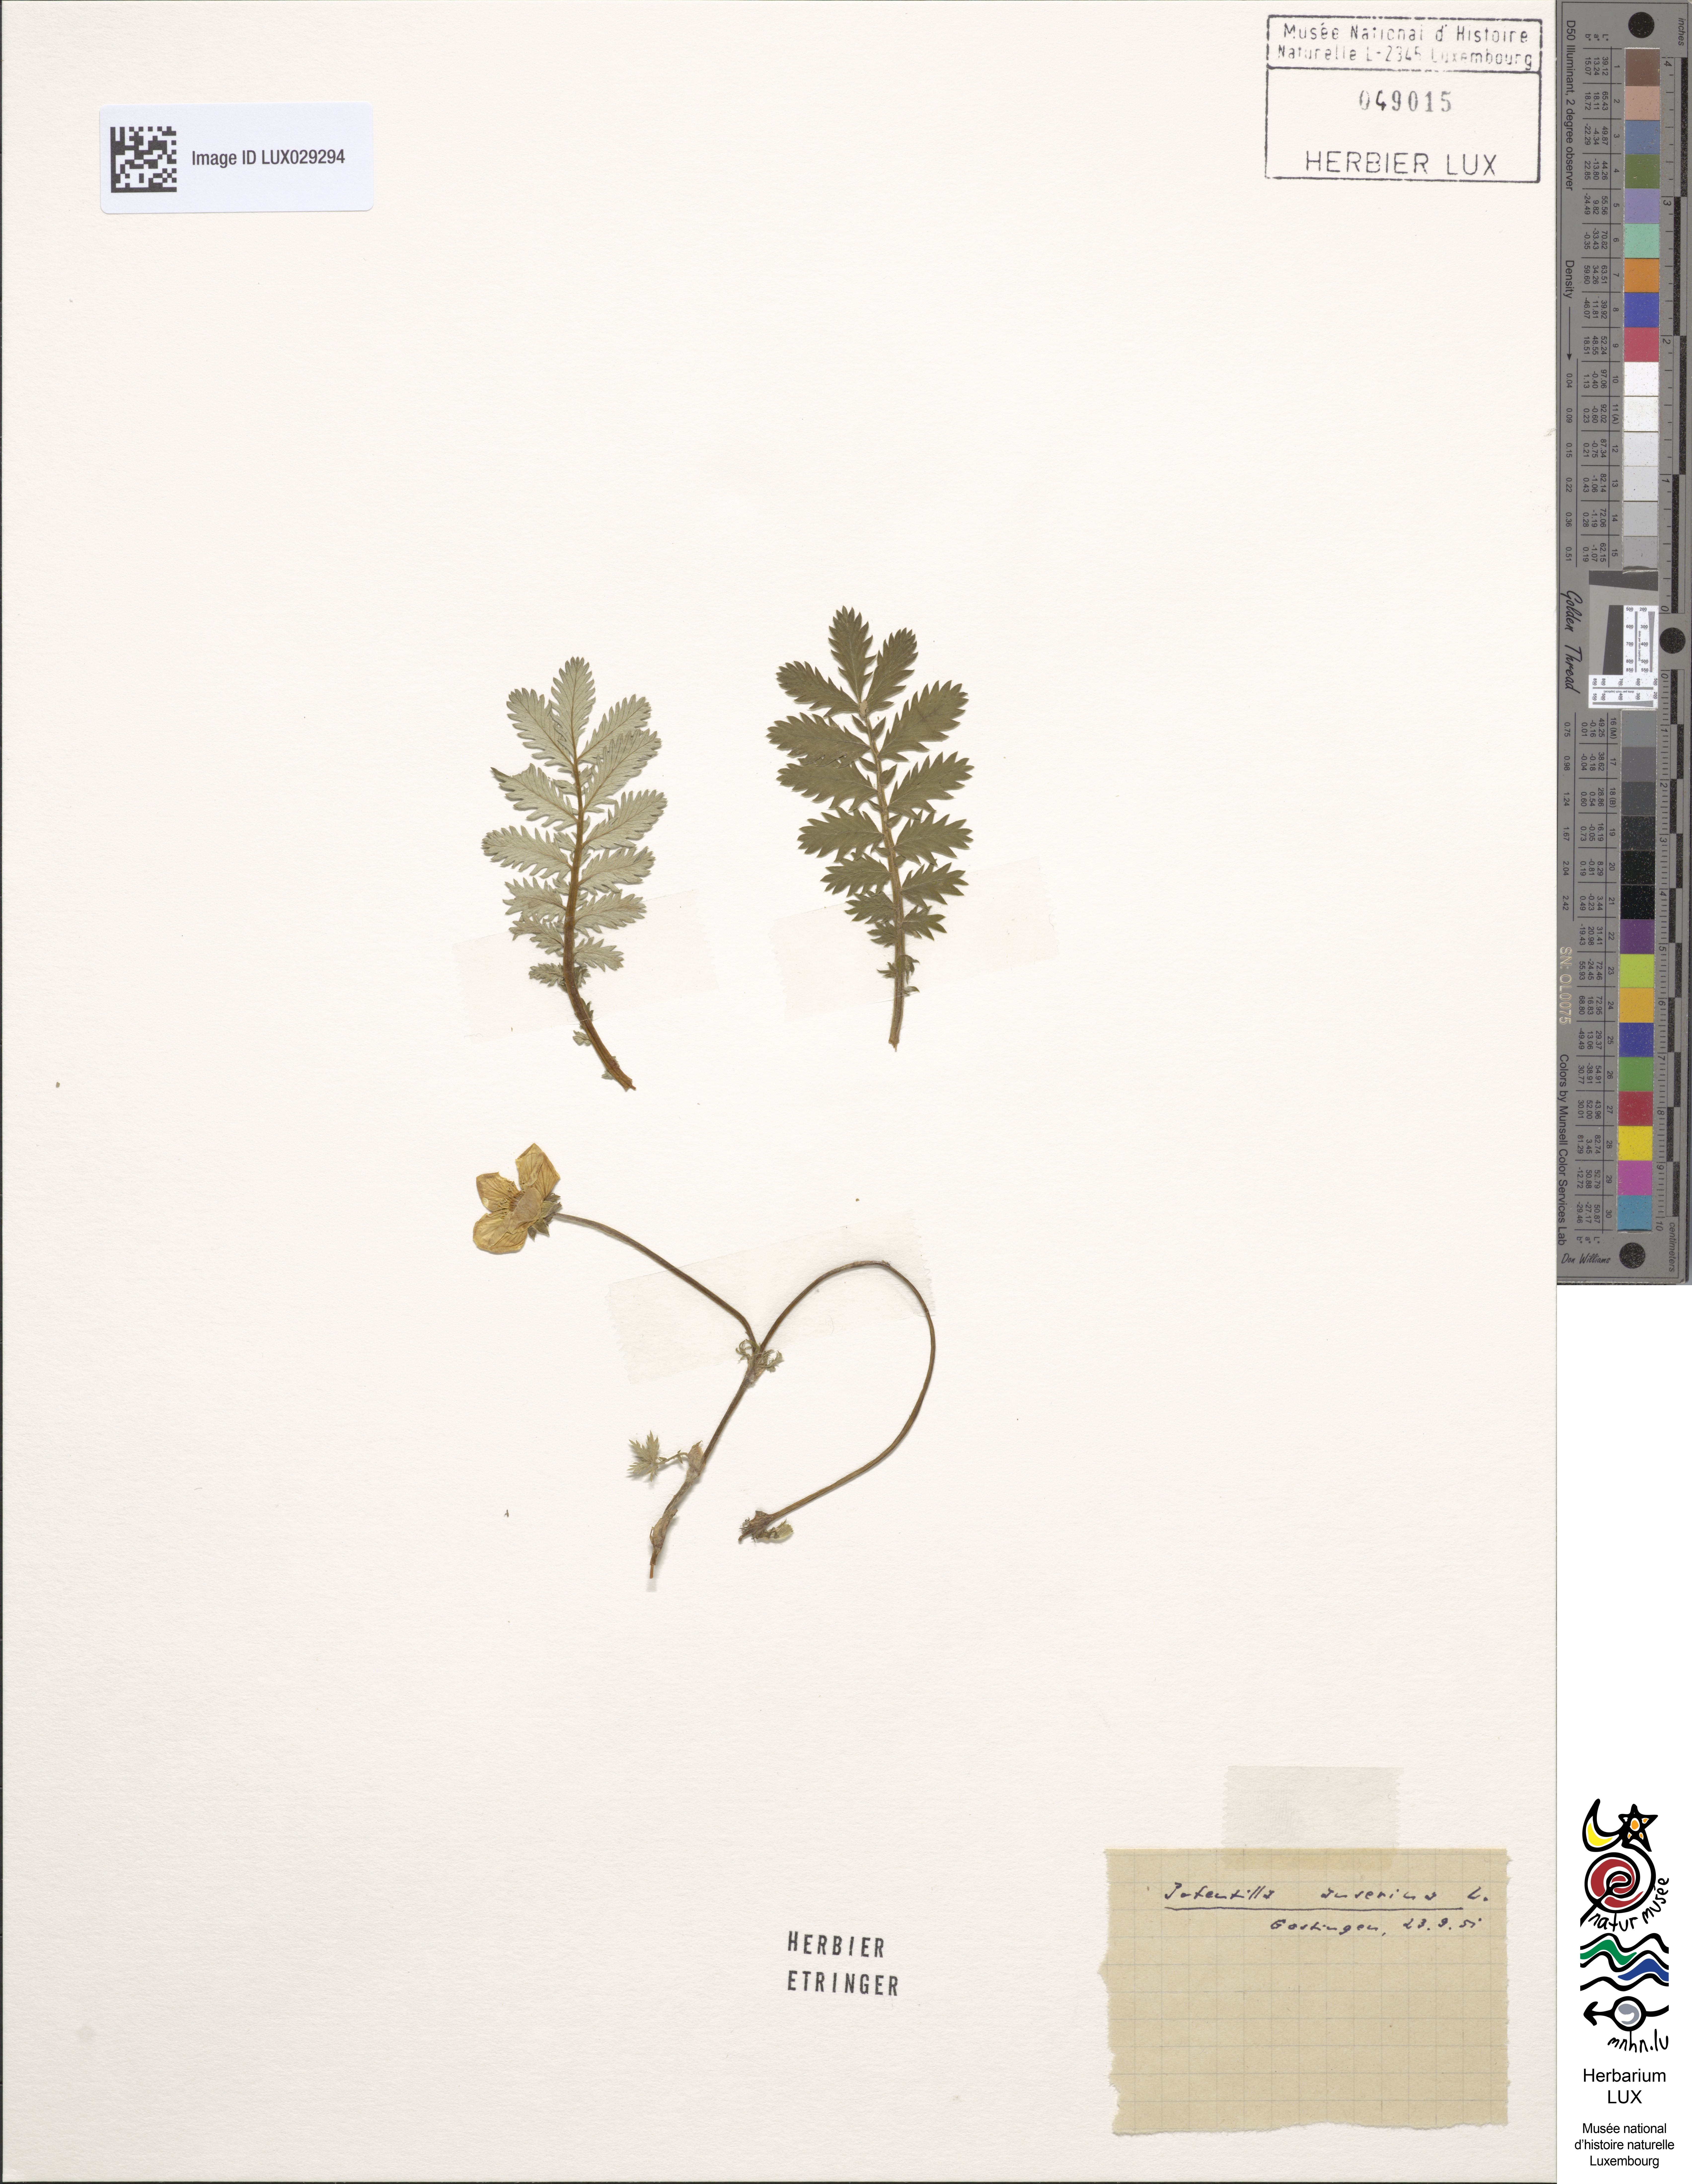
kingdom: Plantae
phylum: Tracheophyta
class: Magnoliopsida
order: Rosales
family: Rosaceae
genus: Argentina
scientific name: Argentina anserina
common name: Common silverweed
